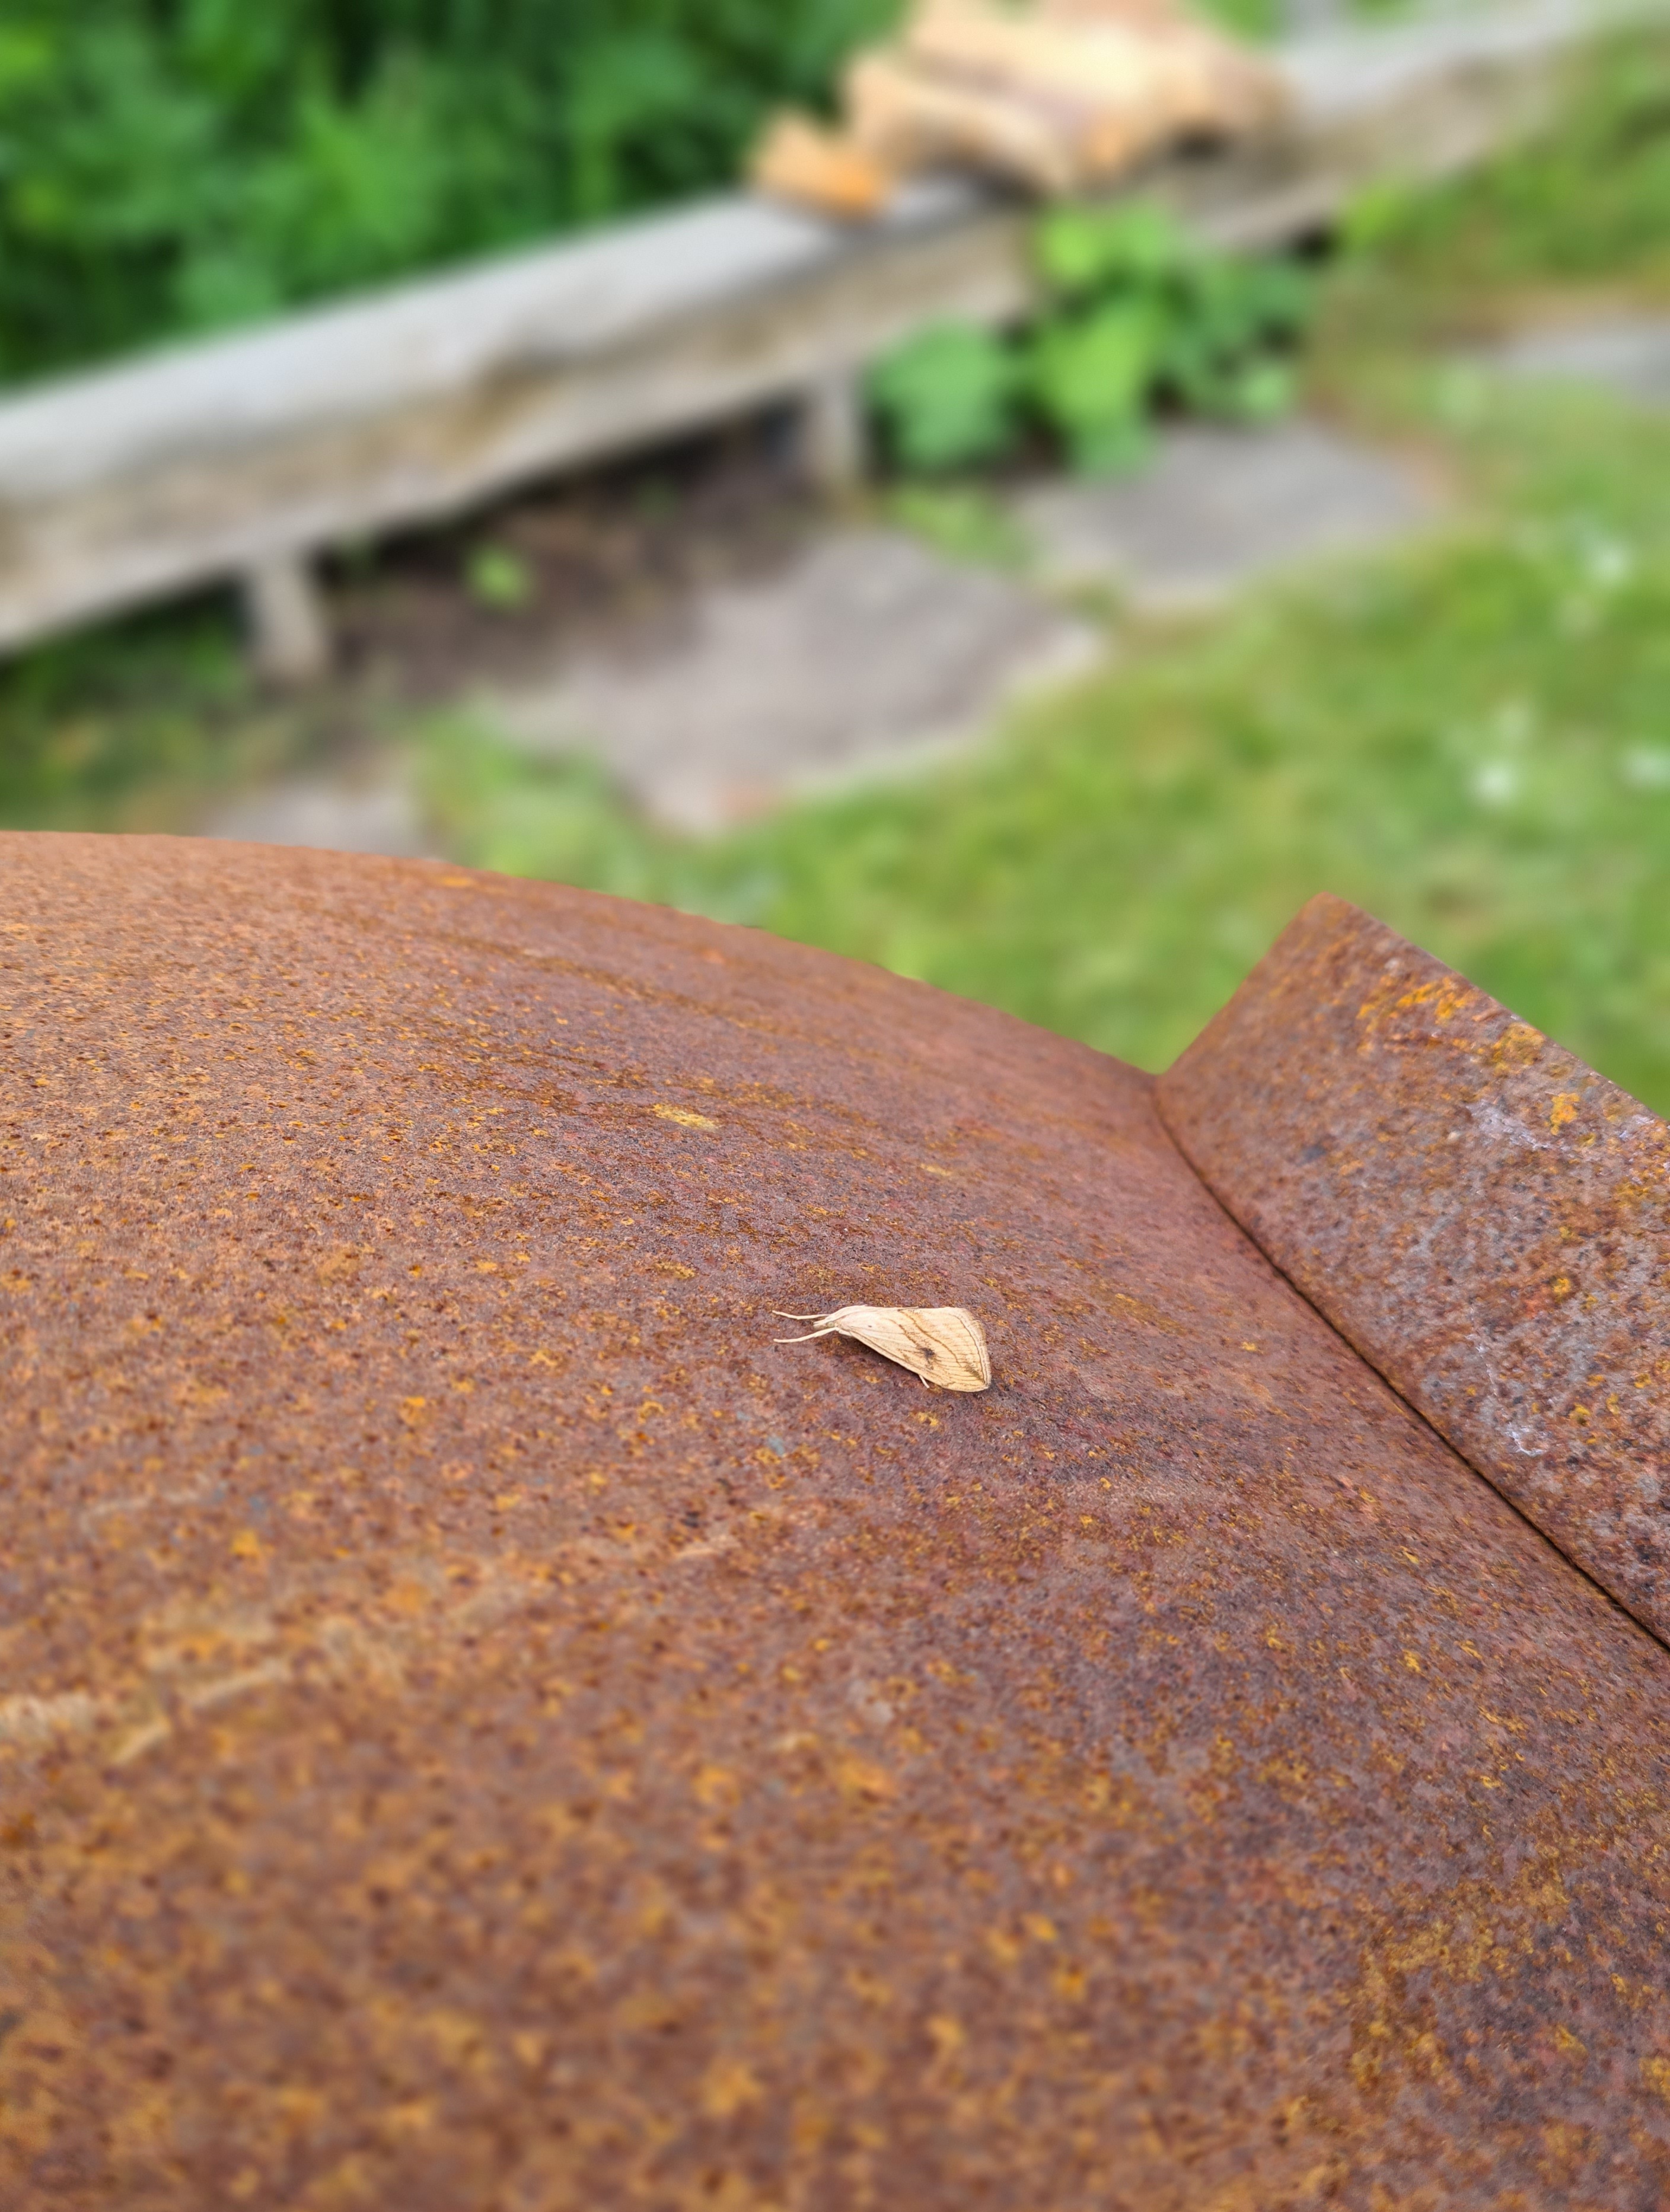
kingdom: Animalia
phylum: Arthropoda
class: Insecta
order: Lepidoptera
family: Crambidae
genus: Evergestis
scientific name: Evergestis forficalis
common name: Kålhalvmøl
